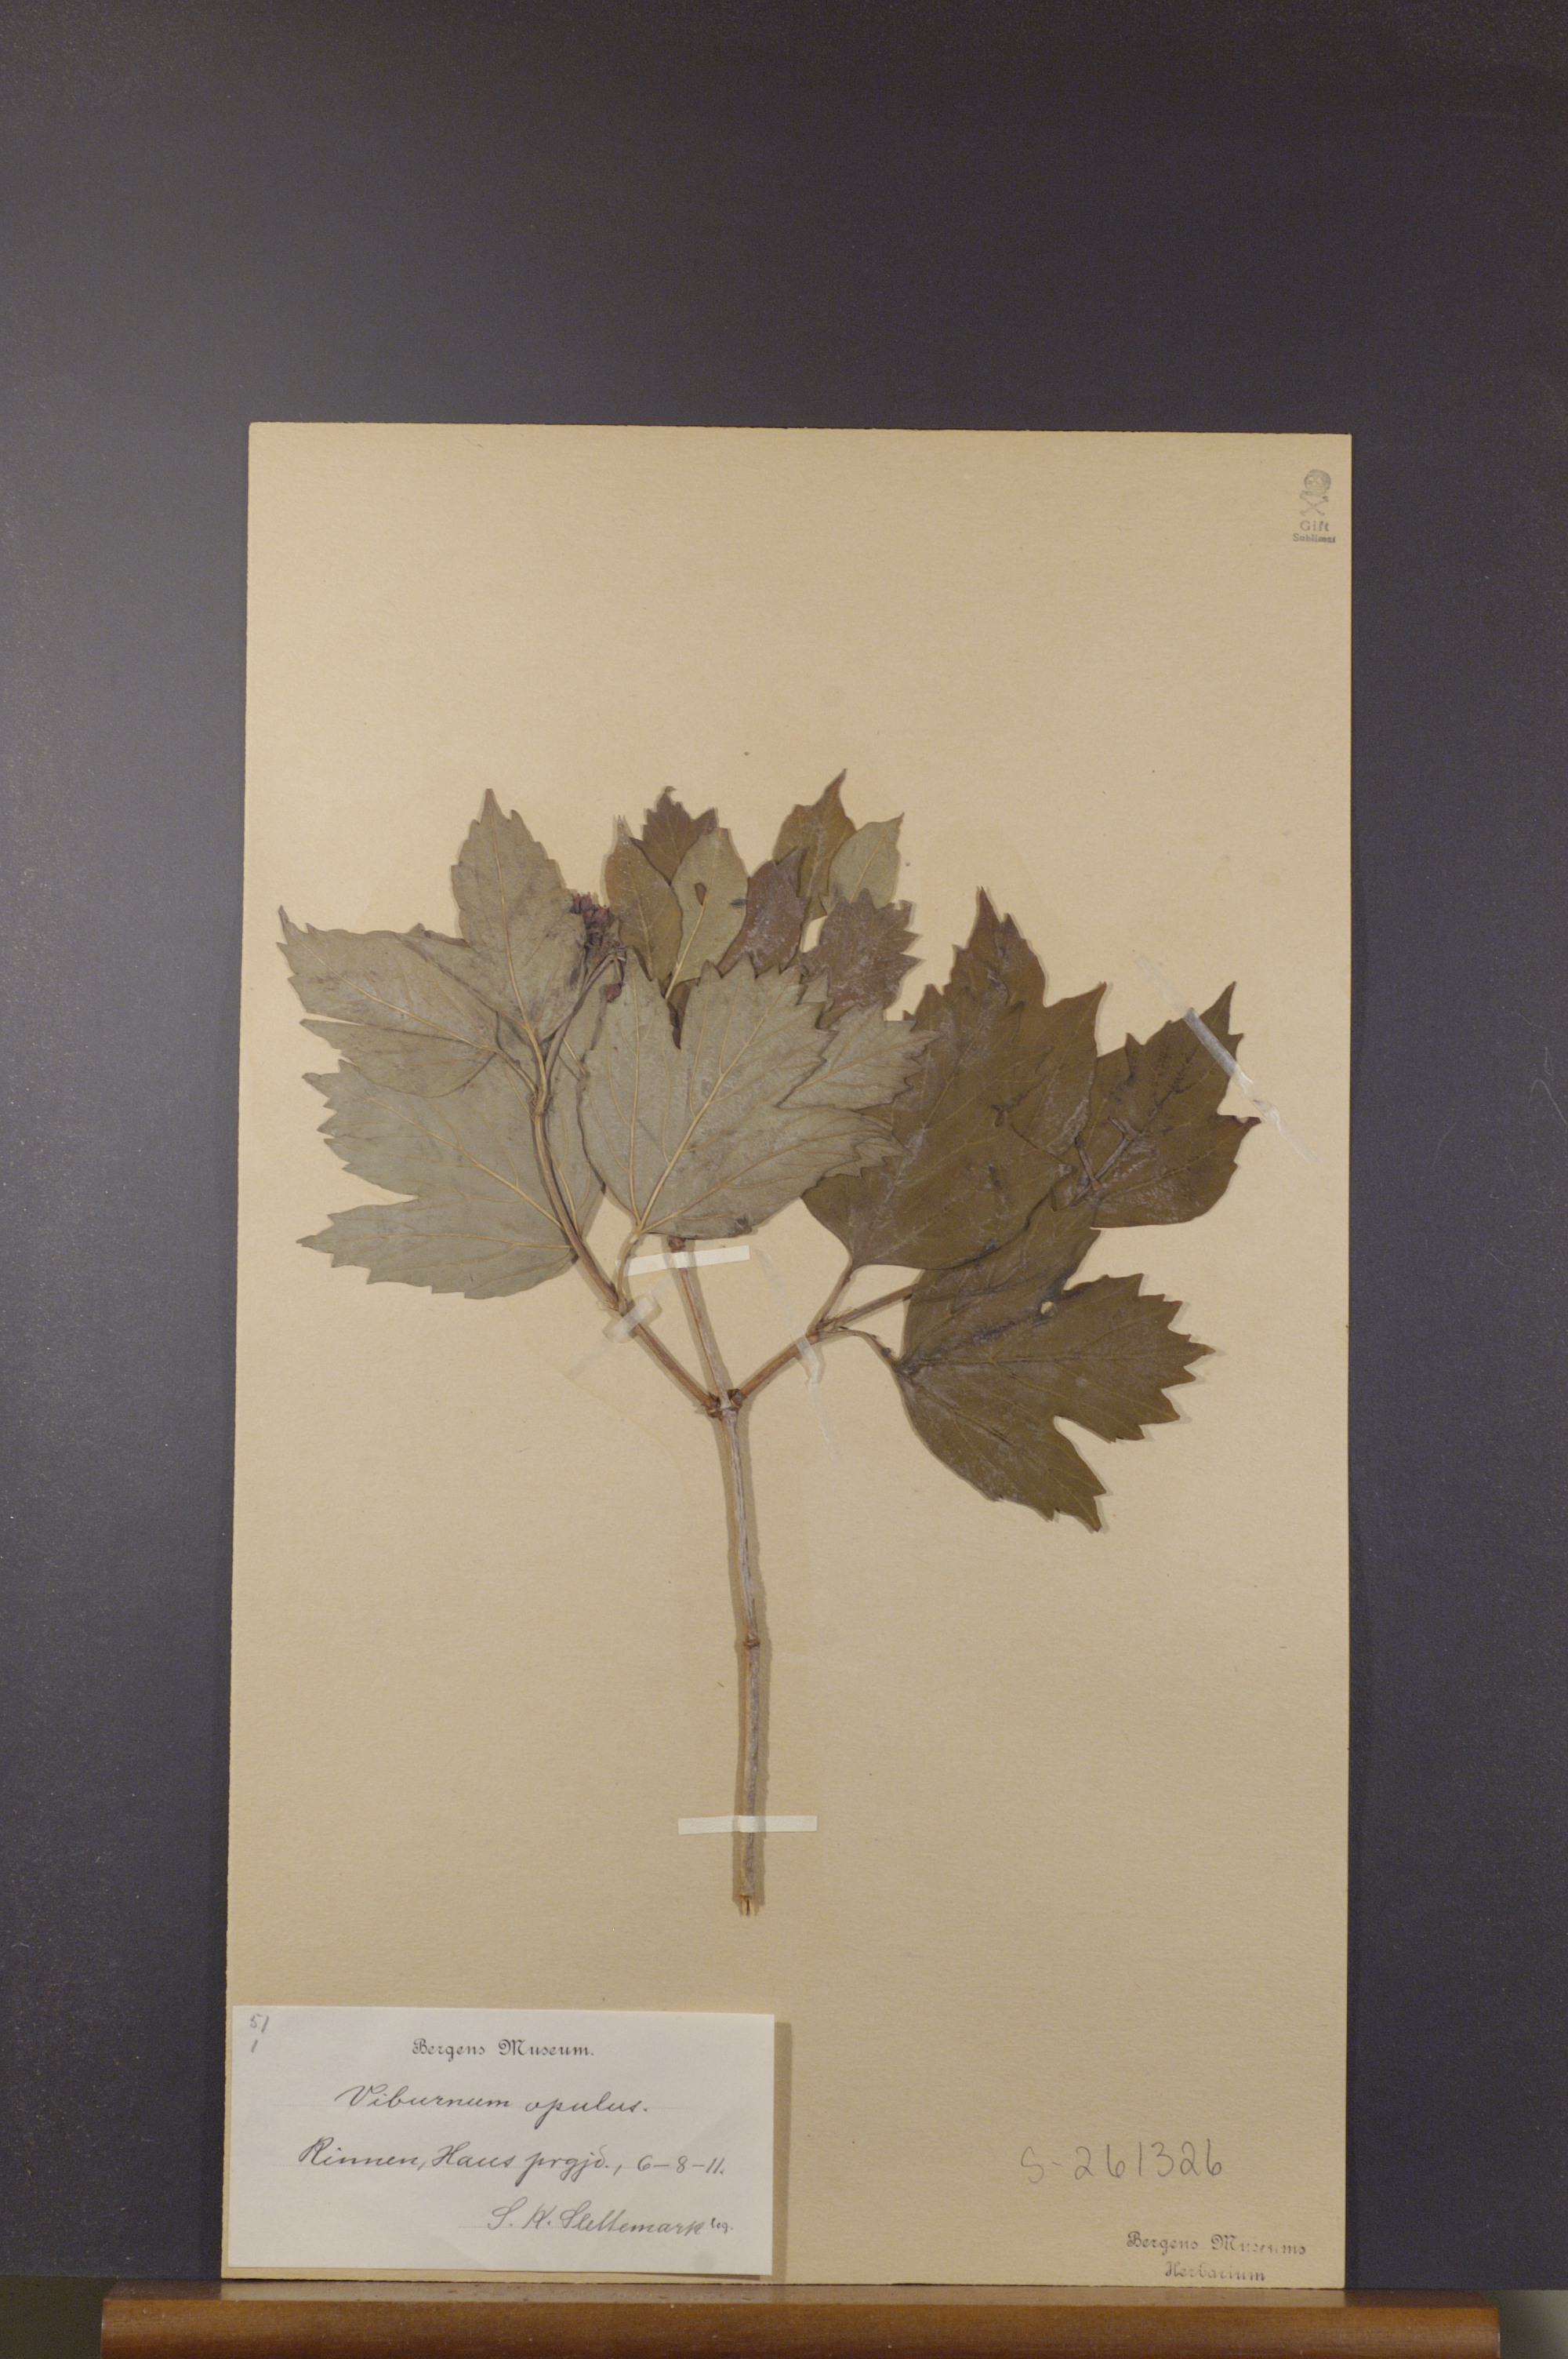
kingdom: Plantae
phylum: Tracheophyta
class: Magnoliopsida
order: Dipsacales
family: Viburnaceae
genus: Viburnum
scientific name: Viburnum opulus
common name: Guelder-rose
